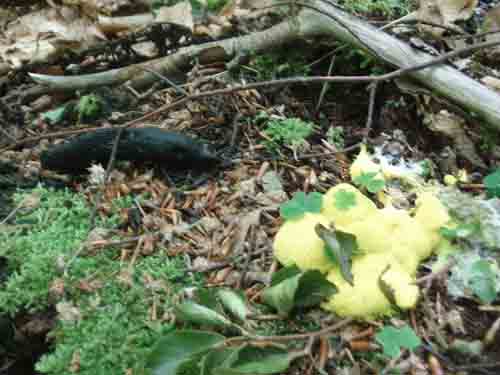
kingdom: Protozoa
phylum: Mycetozoa
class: Myxomycetes
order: Physarales
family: Physaraceae
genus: Fuligo
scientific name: Fuligo septica
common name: gul troldsmør
